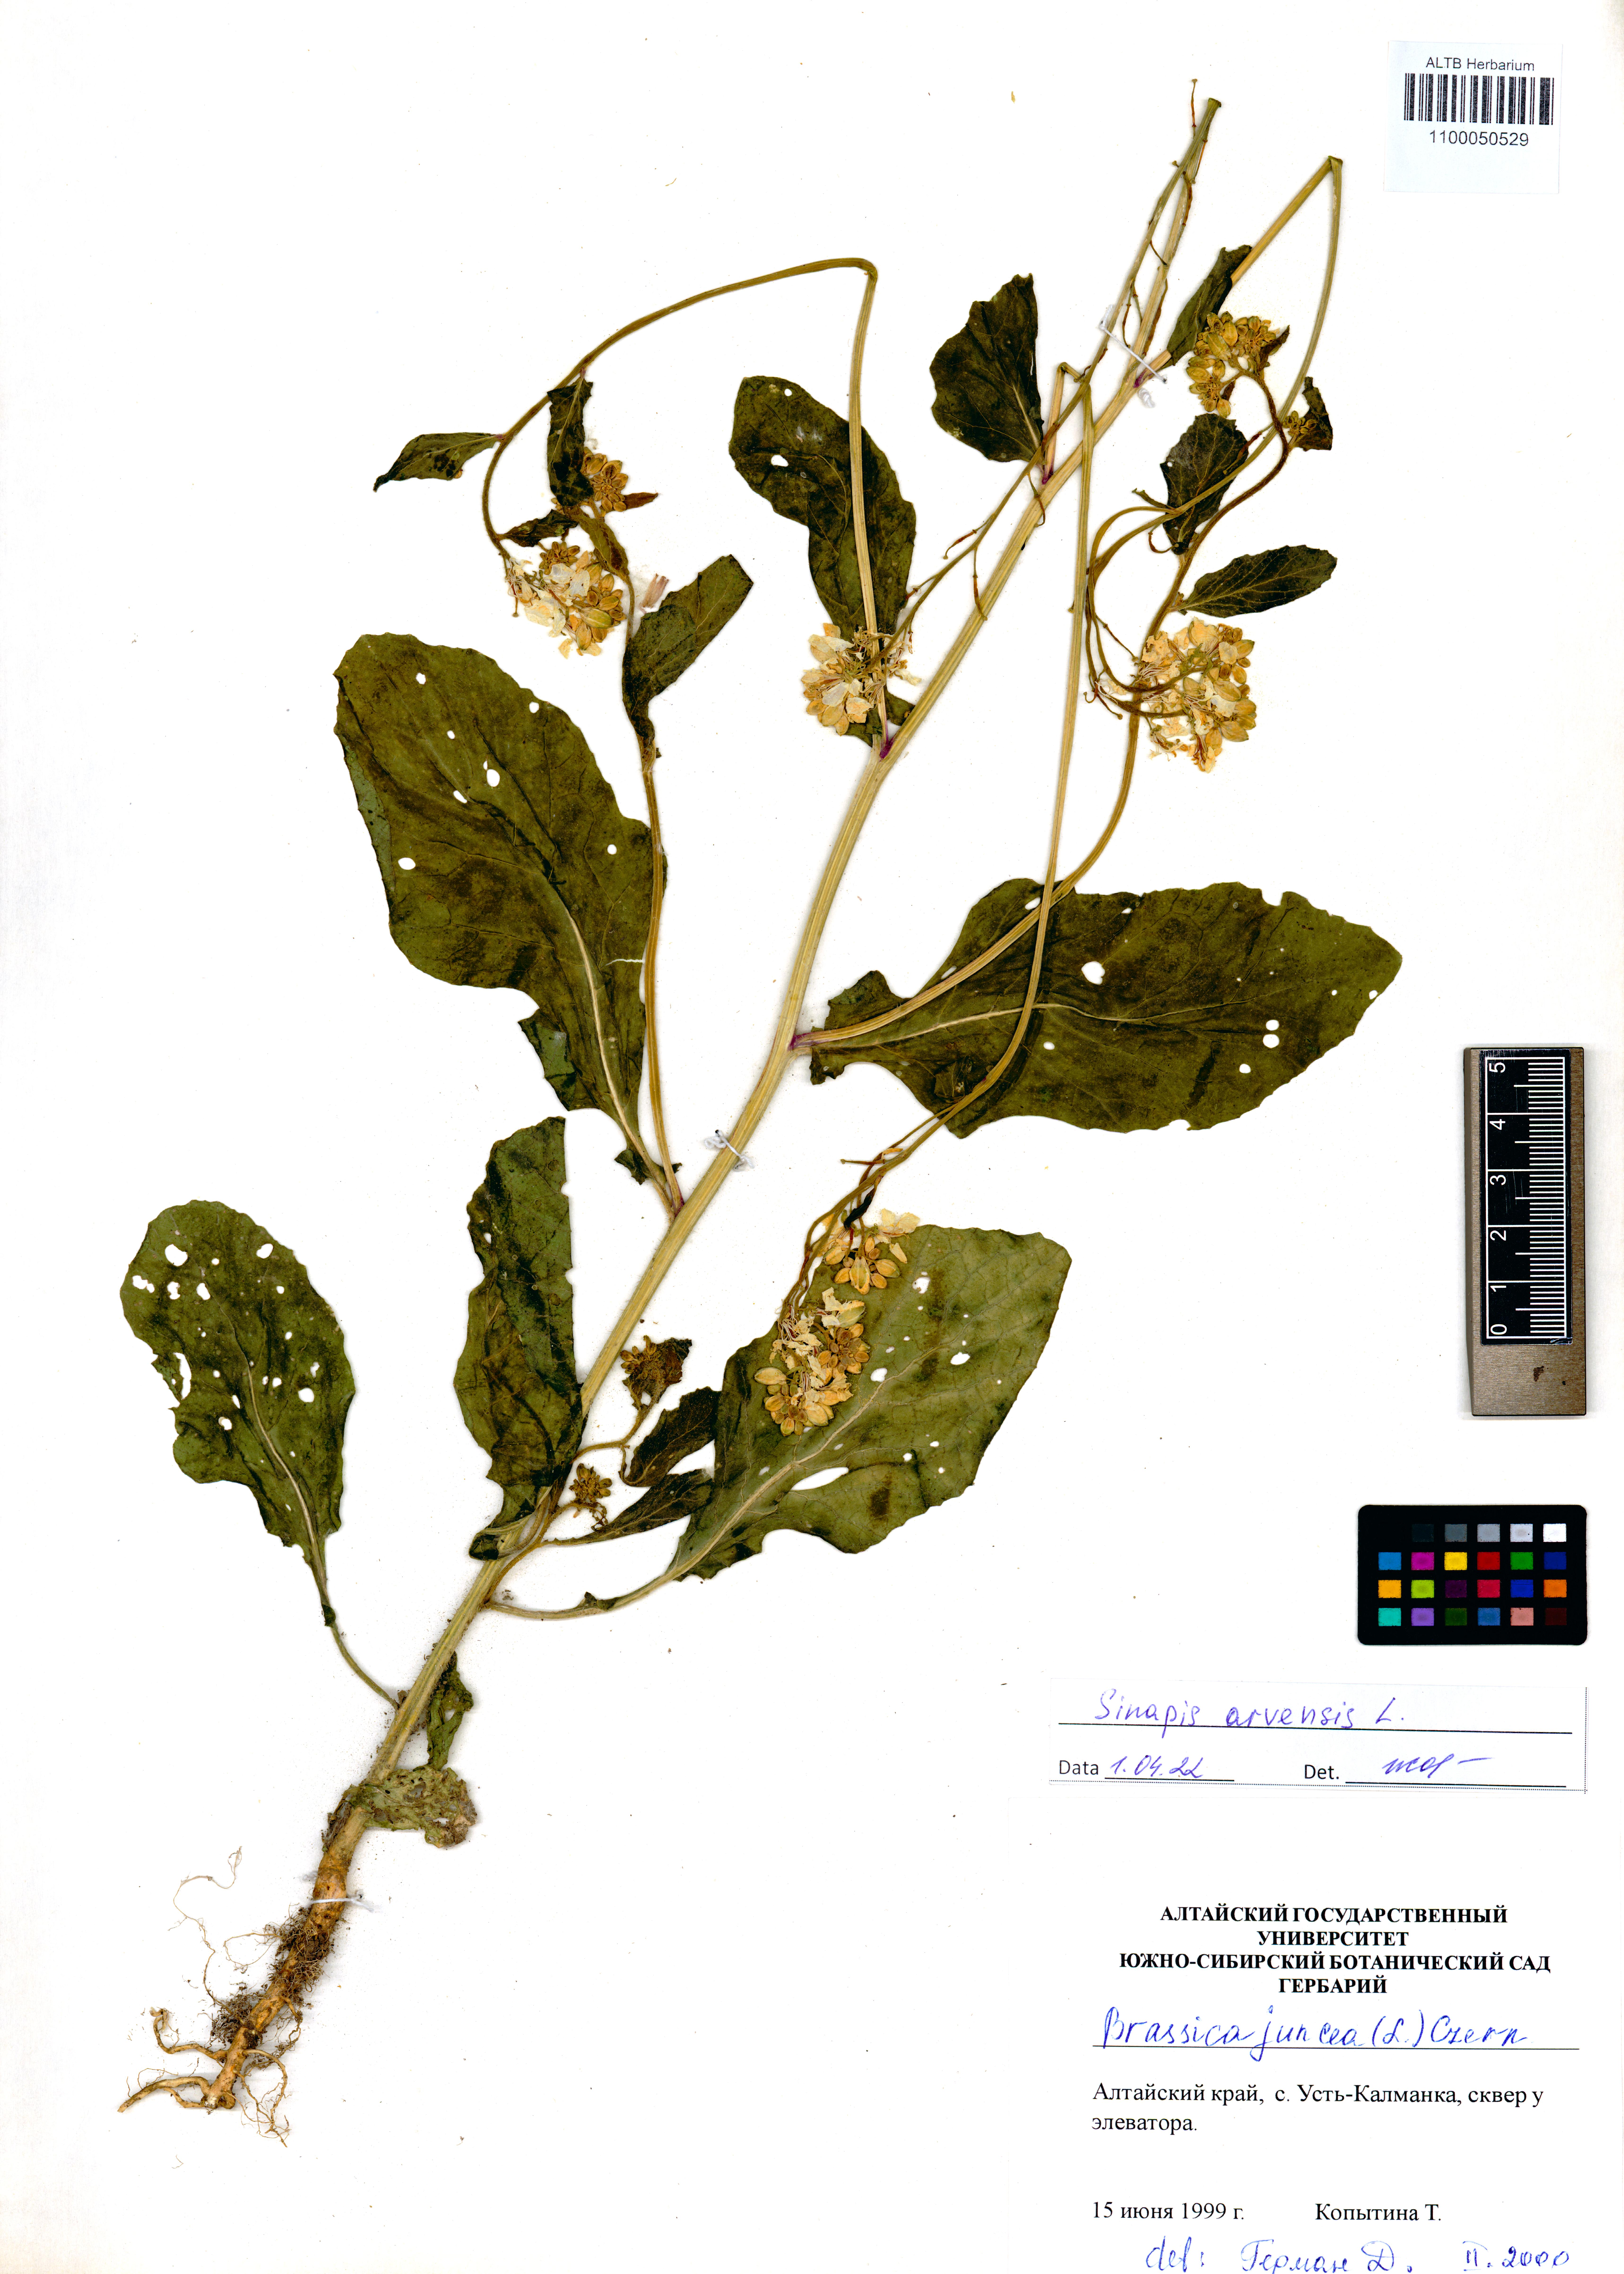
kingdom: Plantae
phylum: Tracheophyta
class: Magnoliopsida
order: Brassicales
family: Brassicaceae
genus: Sinapis
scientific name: Sinapis arvensis
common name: Charlock
